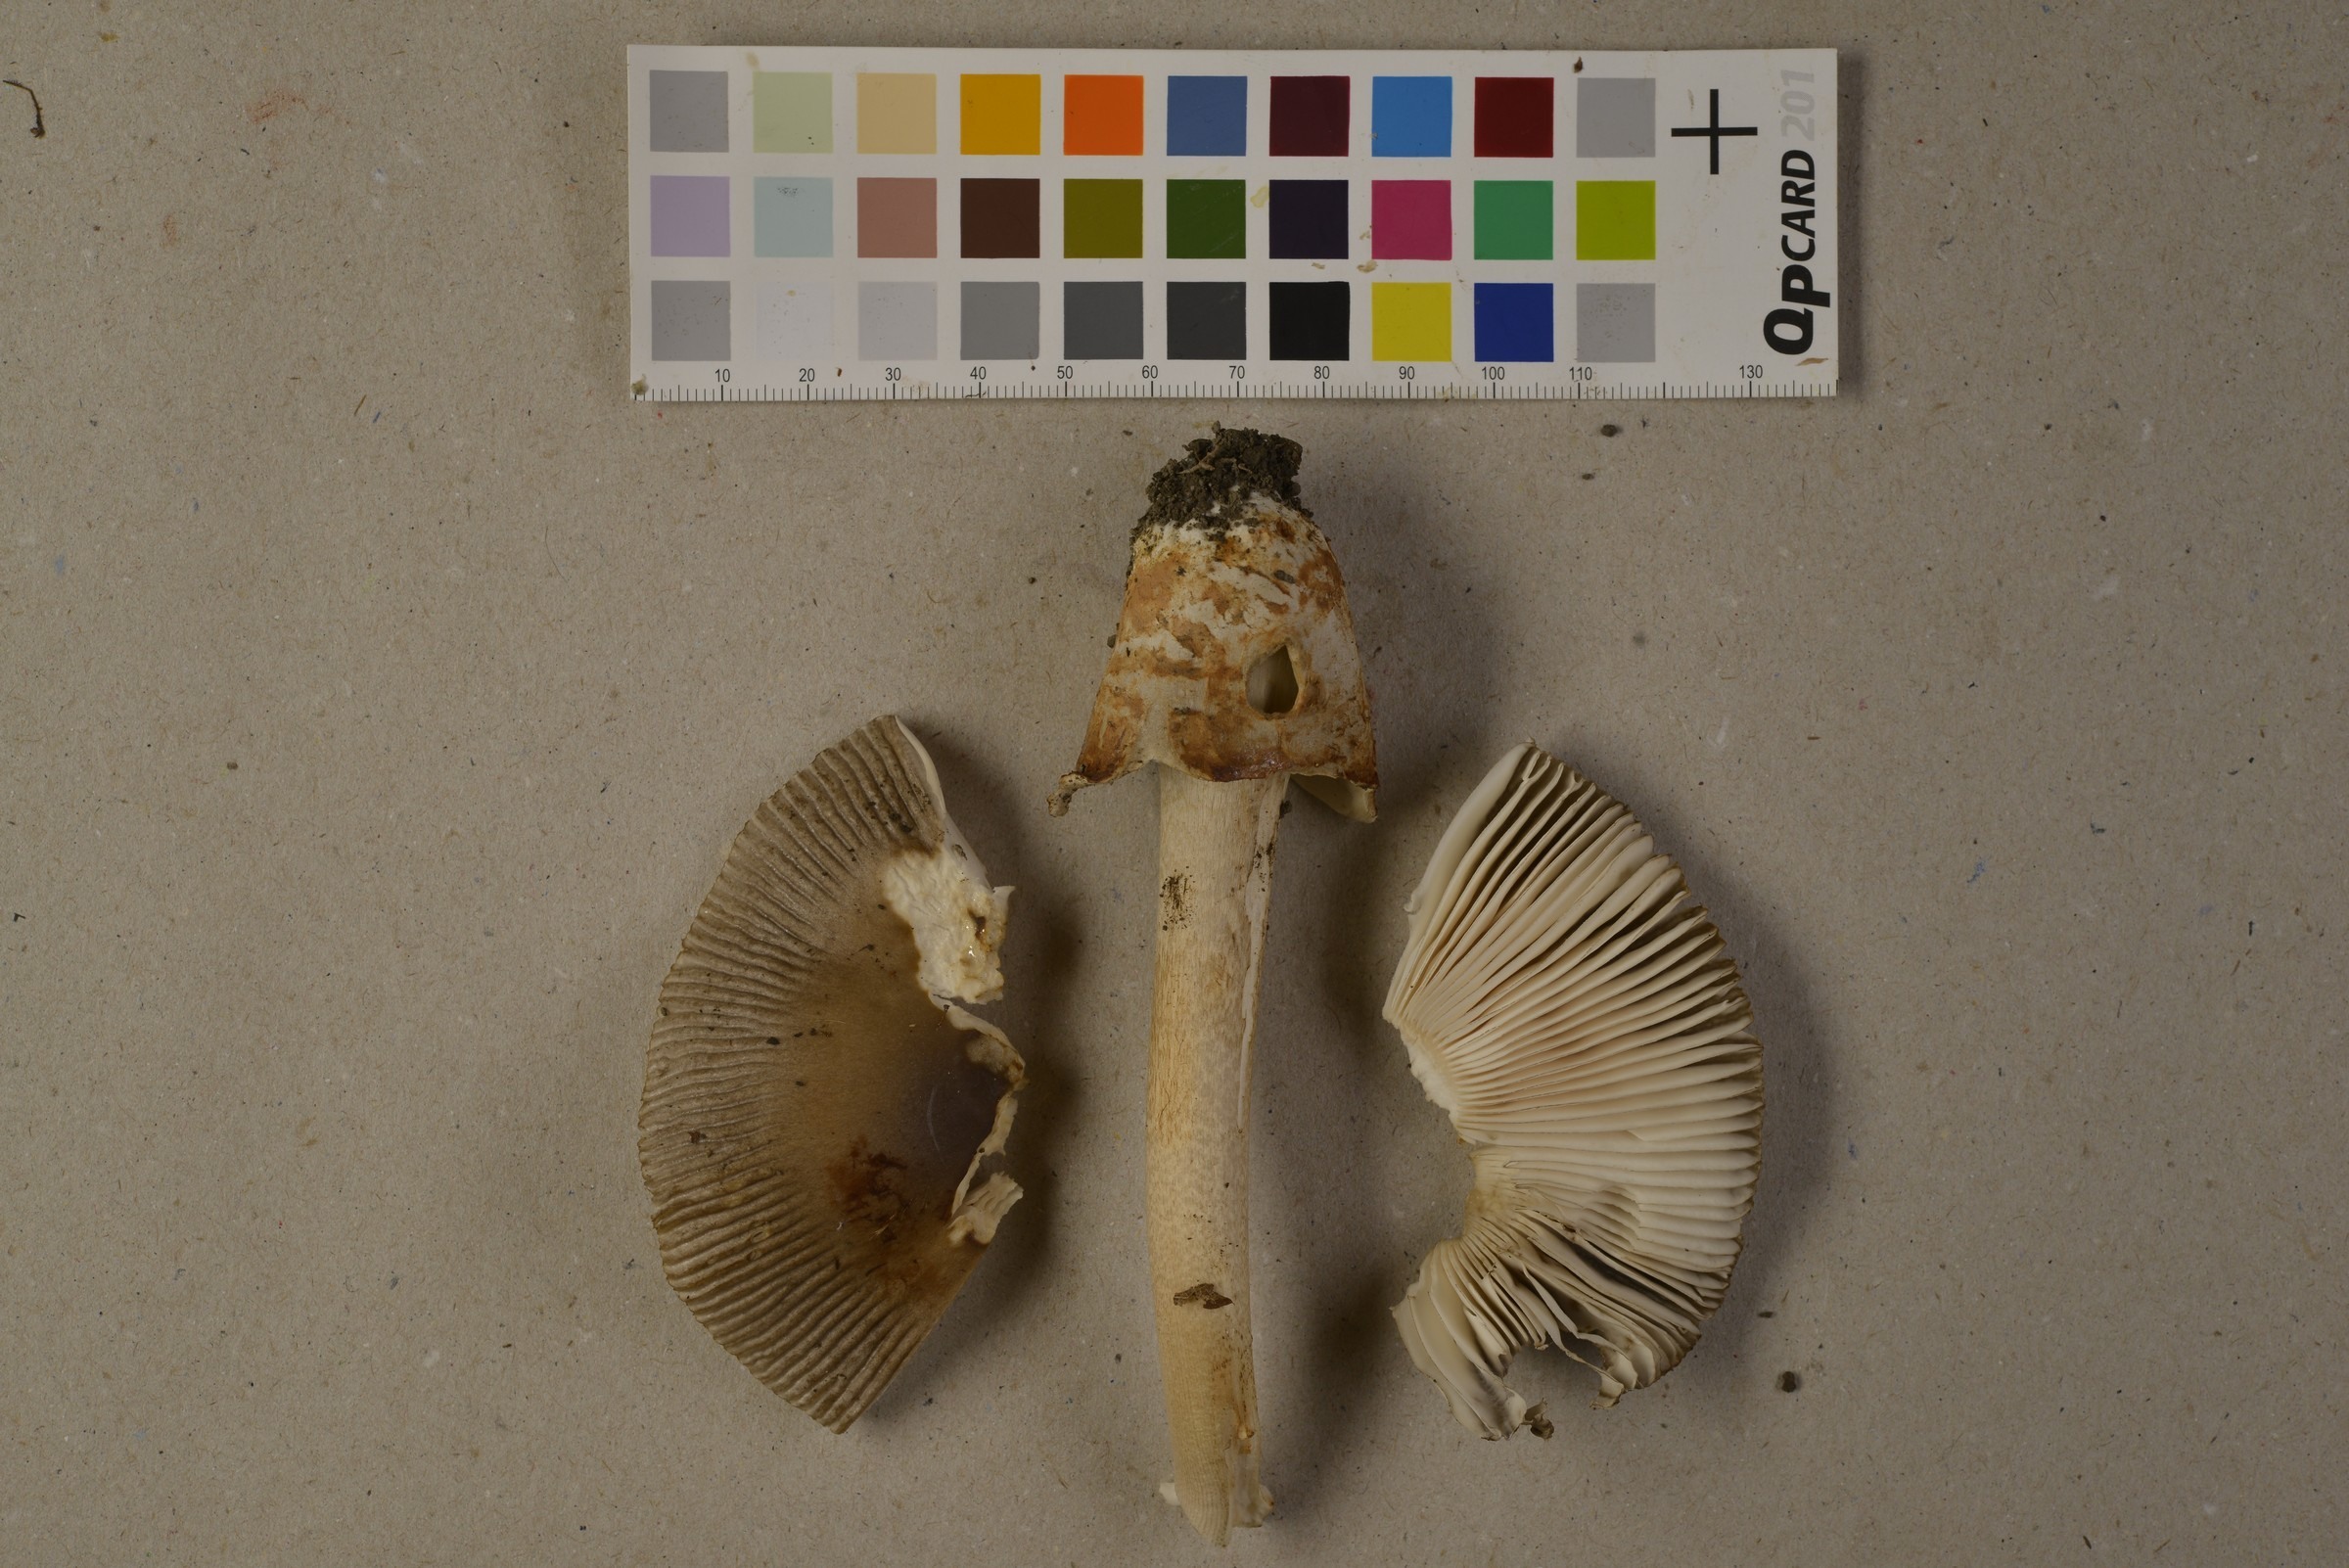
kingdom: Fungi
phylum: Basidiomycota
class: Agaricomycetes
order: Agaricales
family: Amanitaceae
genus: Amanita
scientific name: Amanita battarrae
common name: Banded amanita
